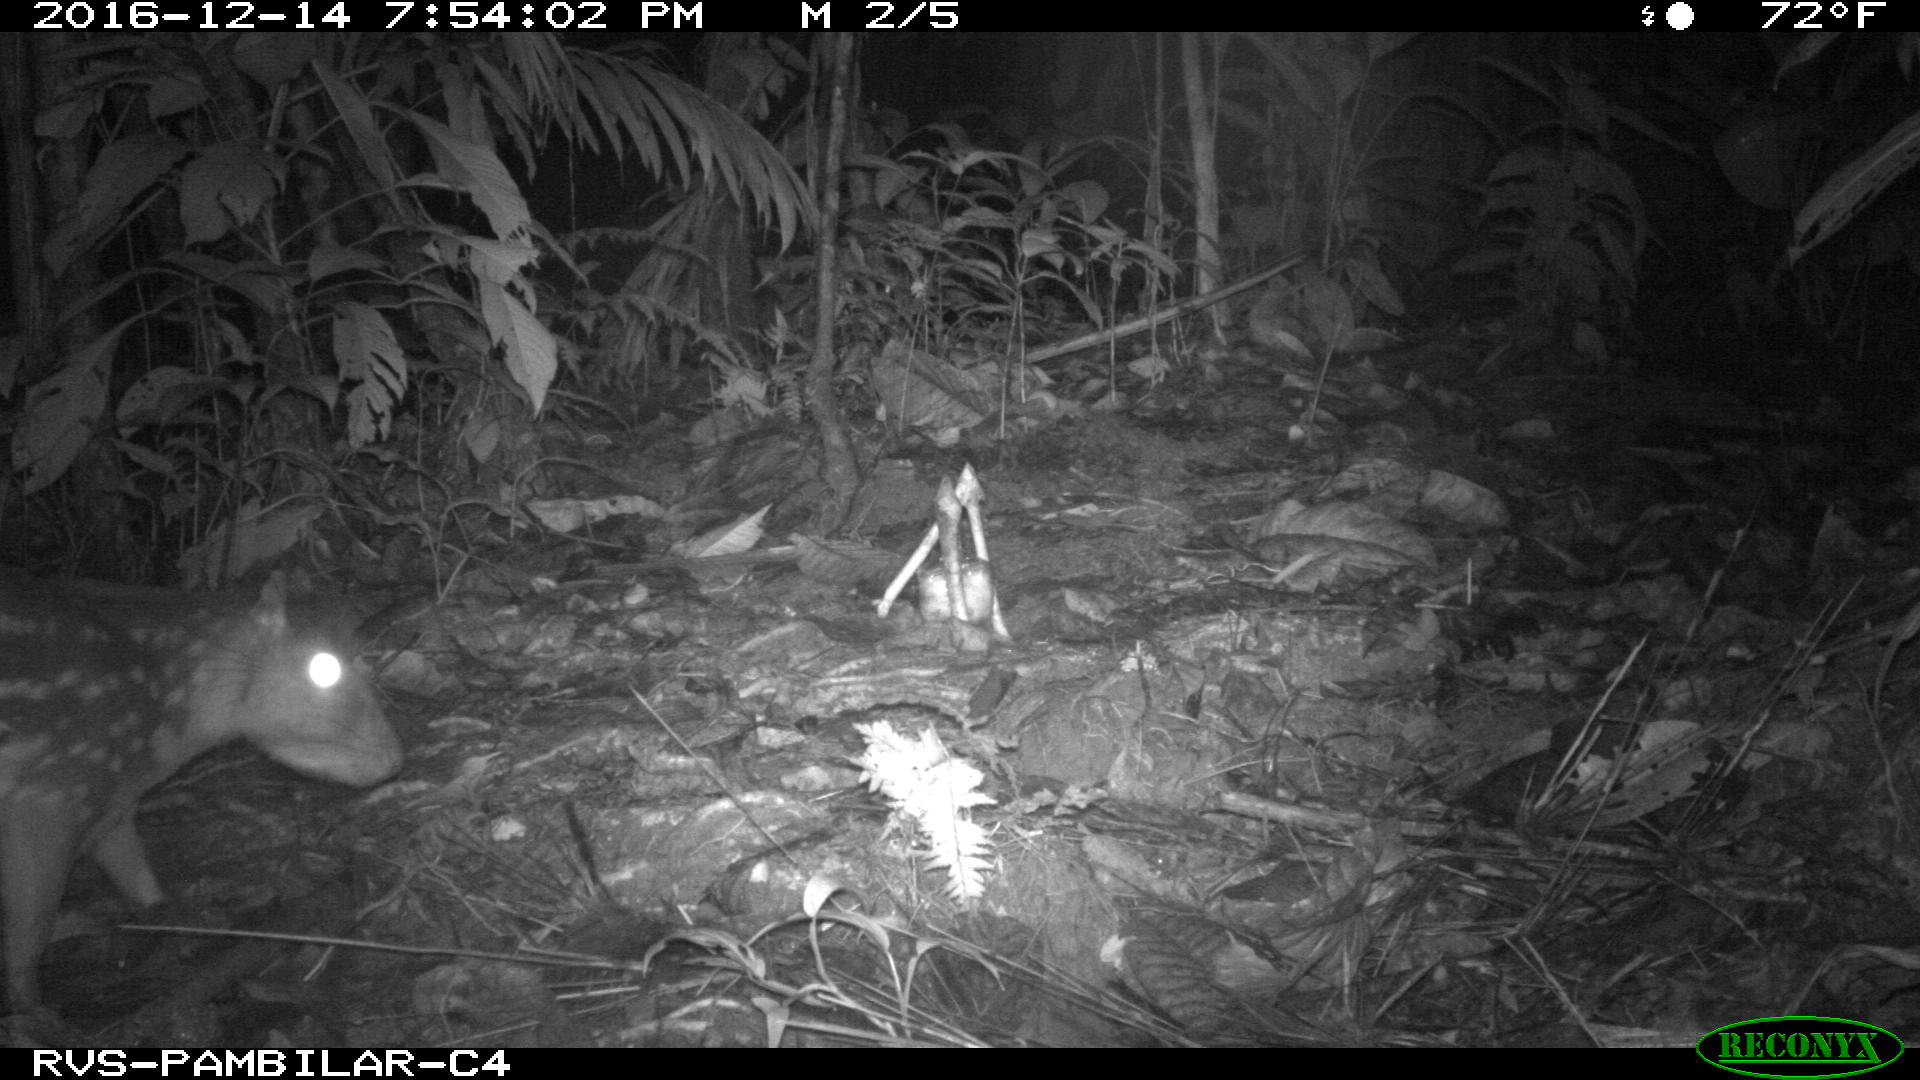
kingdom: Animalia
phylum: Chordata
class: Mammalia
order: Rodentia
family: Cuniculidae
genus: Cuniculus
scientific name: Cuniculus paca
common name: Lowland paca
